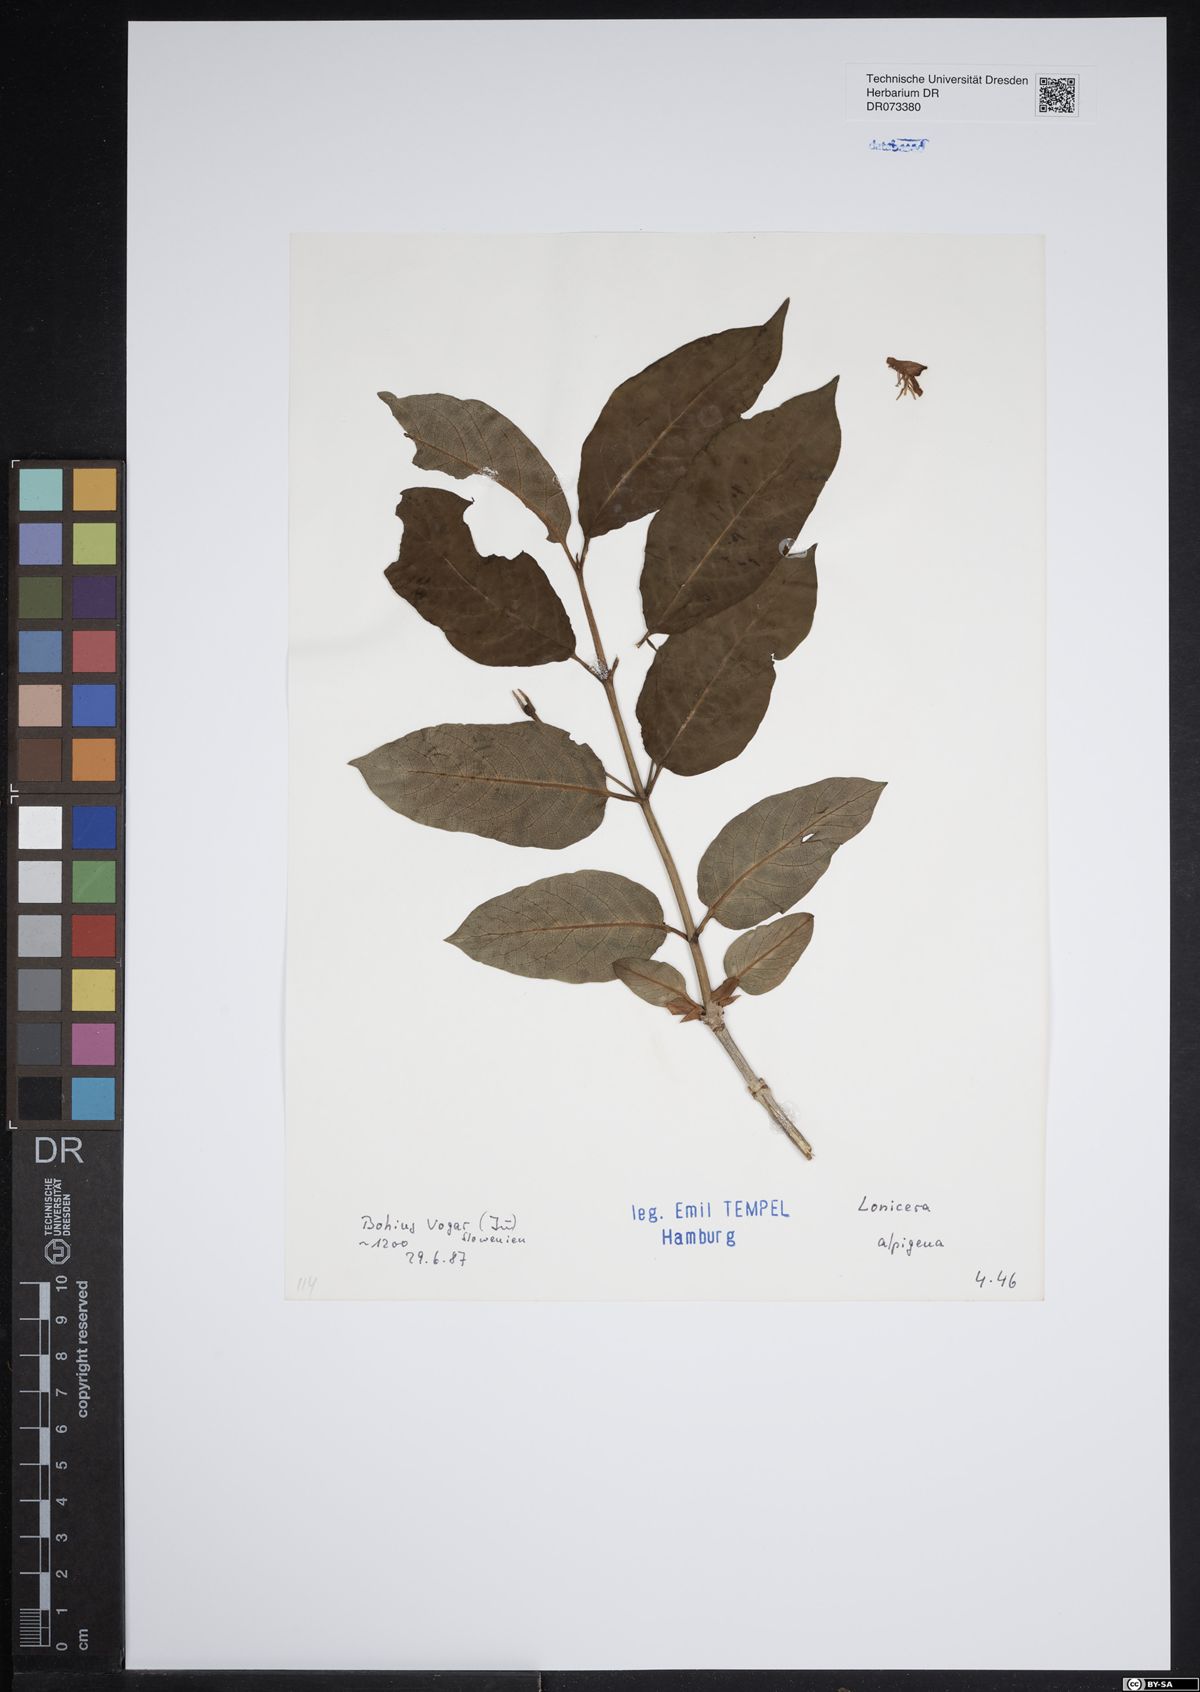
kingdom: Plantae
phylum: Tracheophyta
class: Magnoliopsida
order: Dipsacales
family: Caprifoliaceae
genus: Lonicera
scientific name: Lonicera alpigena
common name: Alpine honeysuckle
